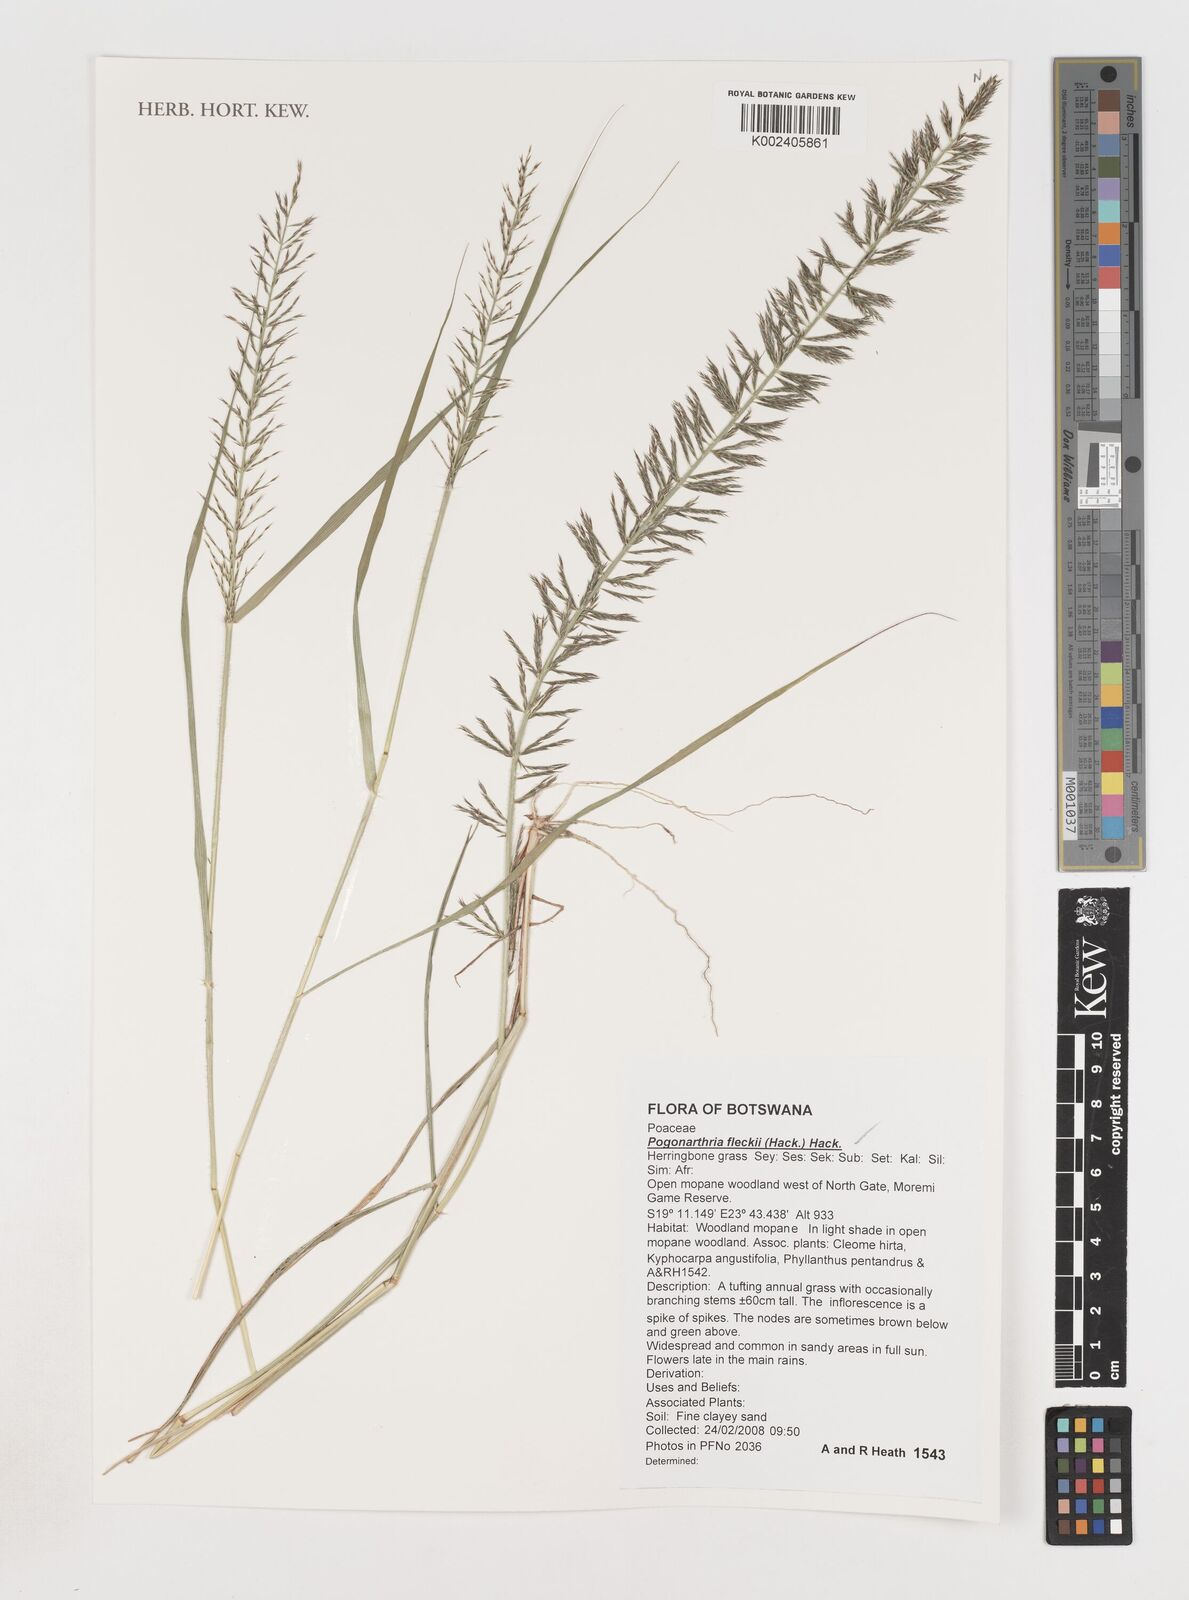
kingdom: Plantae
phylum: Tracheophyta
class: Liliopsida
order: Poales
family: Poaceae
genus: Pogonarthria
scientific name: Pogonarthria fleckii
